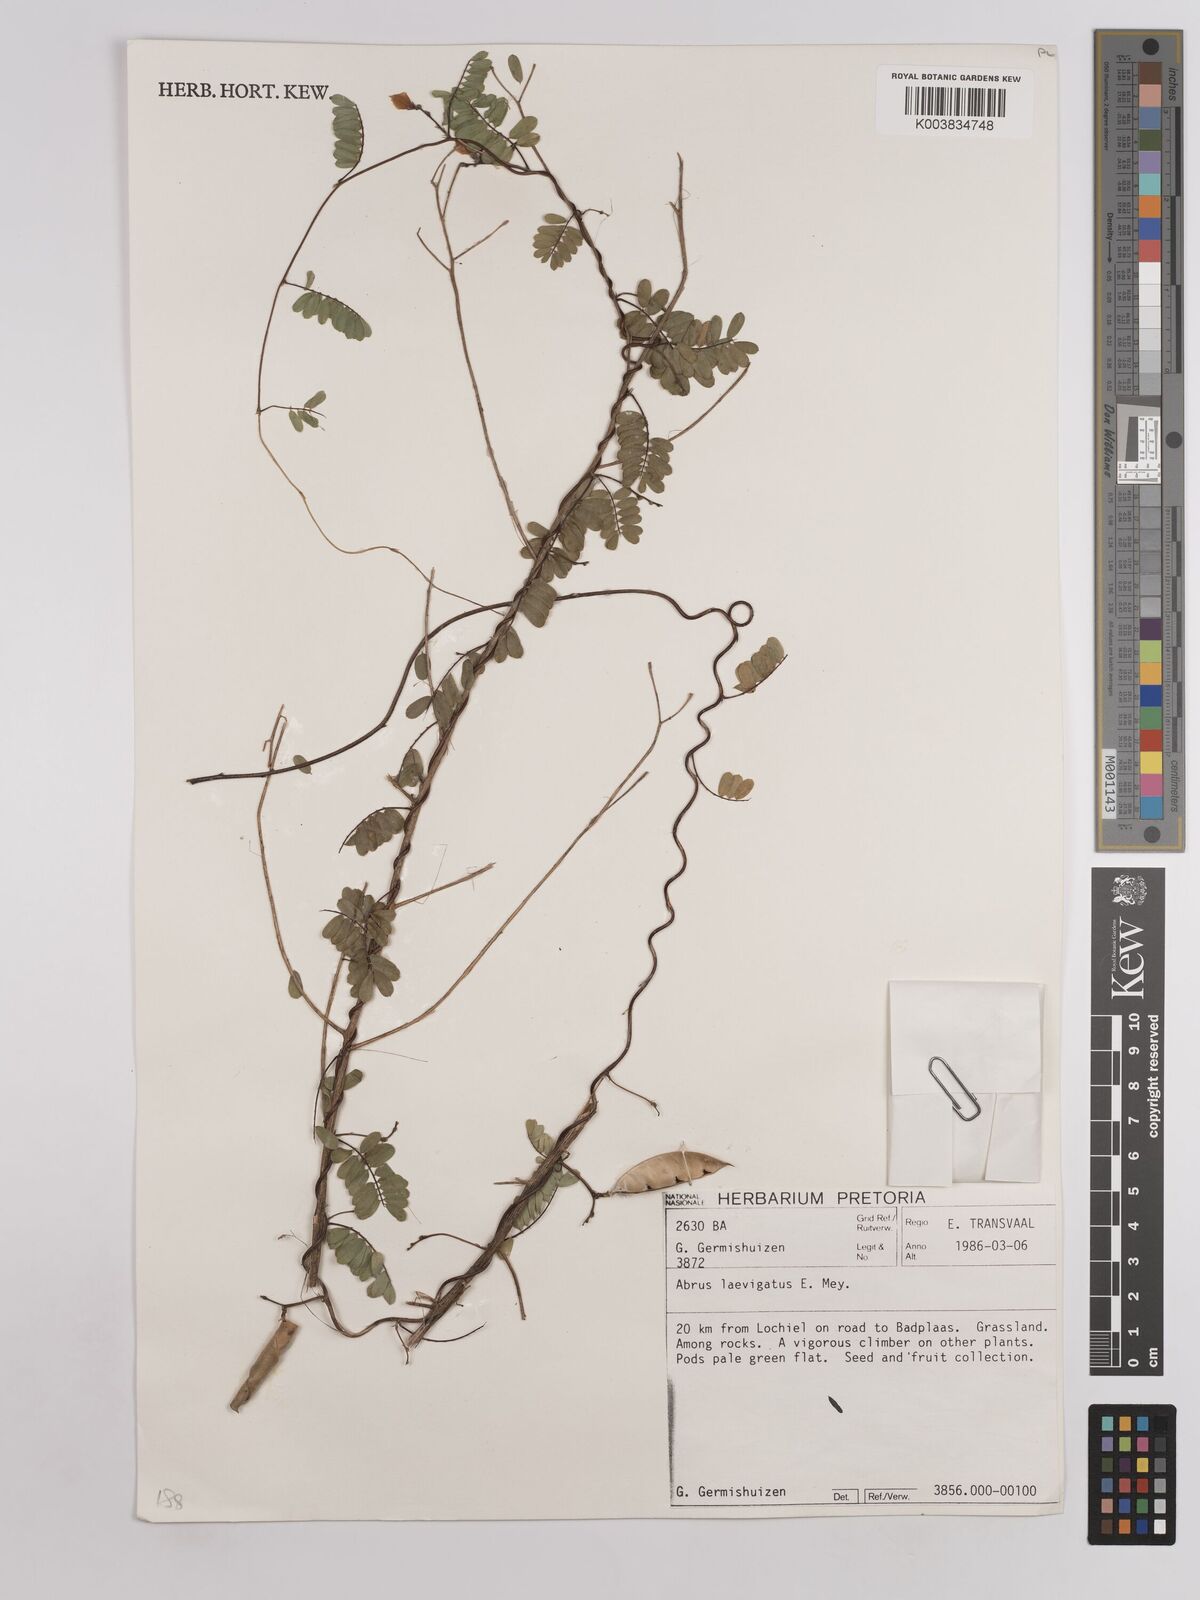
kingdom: Plantae
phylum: Tracheophyta
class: Magnoliopsida
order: Fabales
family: Fabaceae
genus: Abrus
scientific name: Abrus laevigatus
